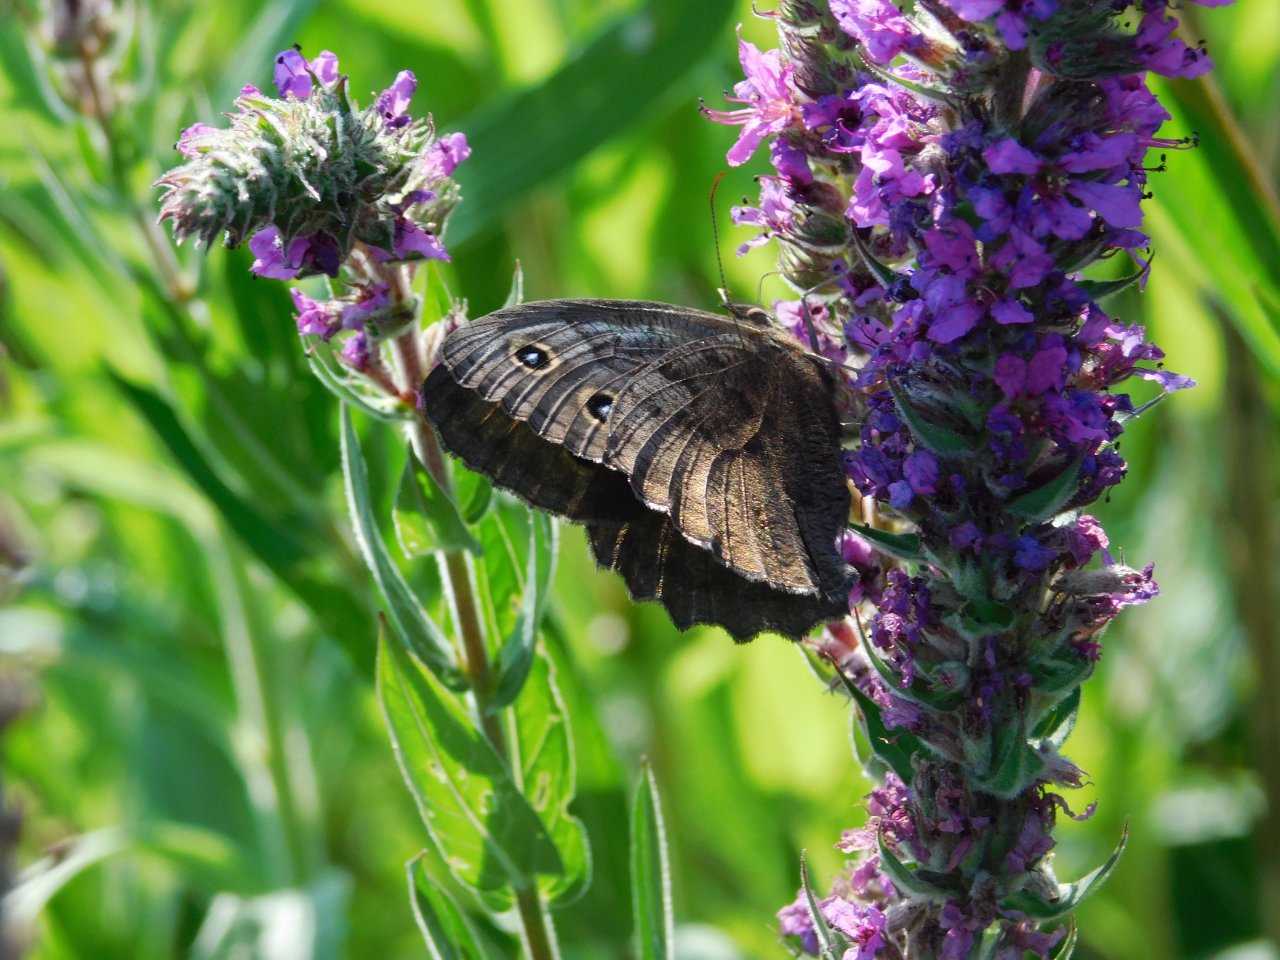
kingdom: Animalia
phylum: Arthropoda
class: Insecta
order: Lepidoptera
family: Nymphalidae
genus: Cercyonis
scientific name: Cercyonis pegala
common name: Common Wood-Nymph
